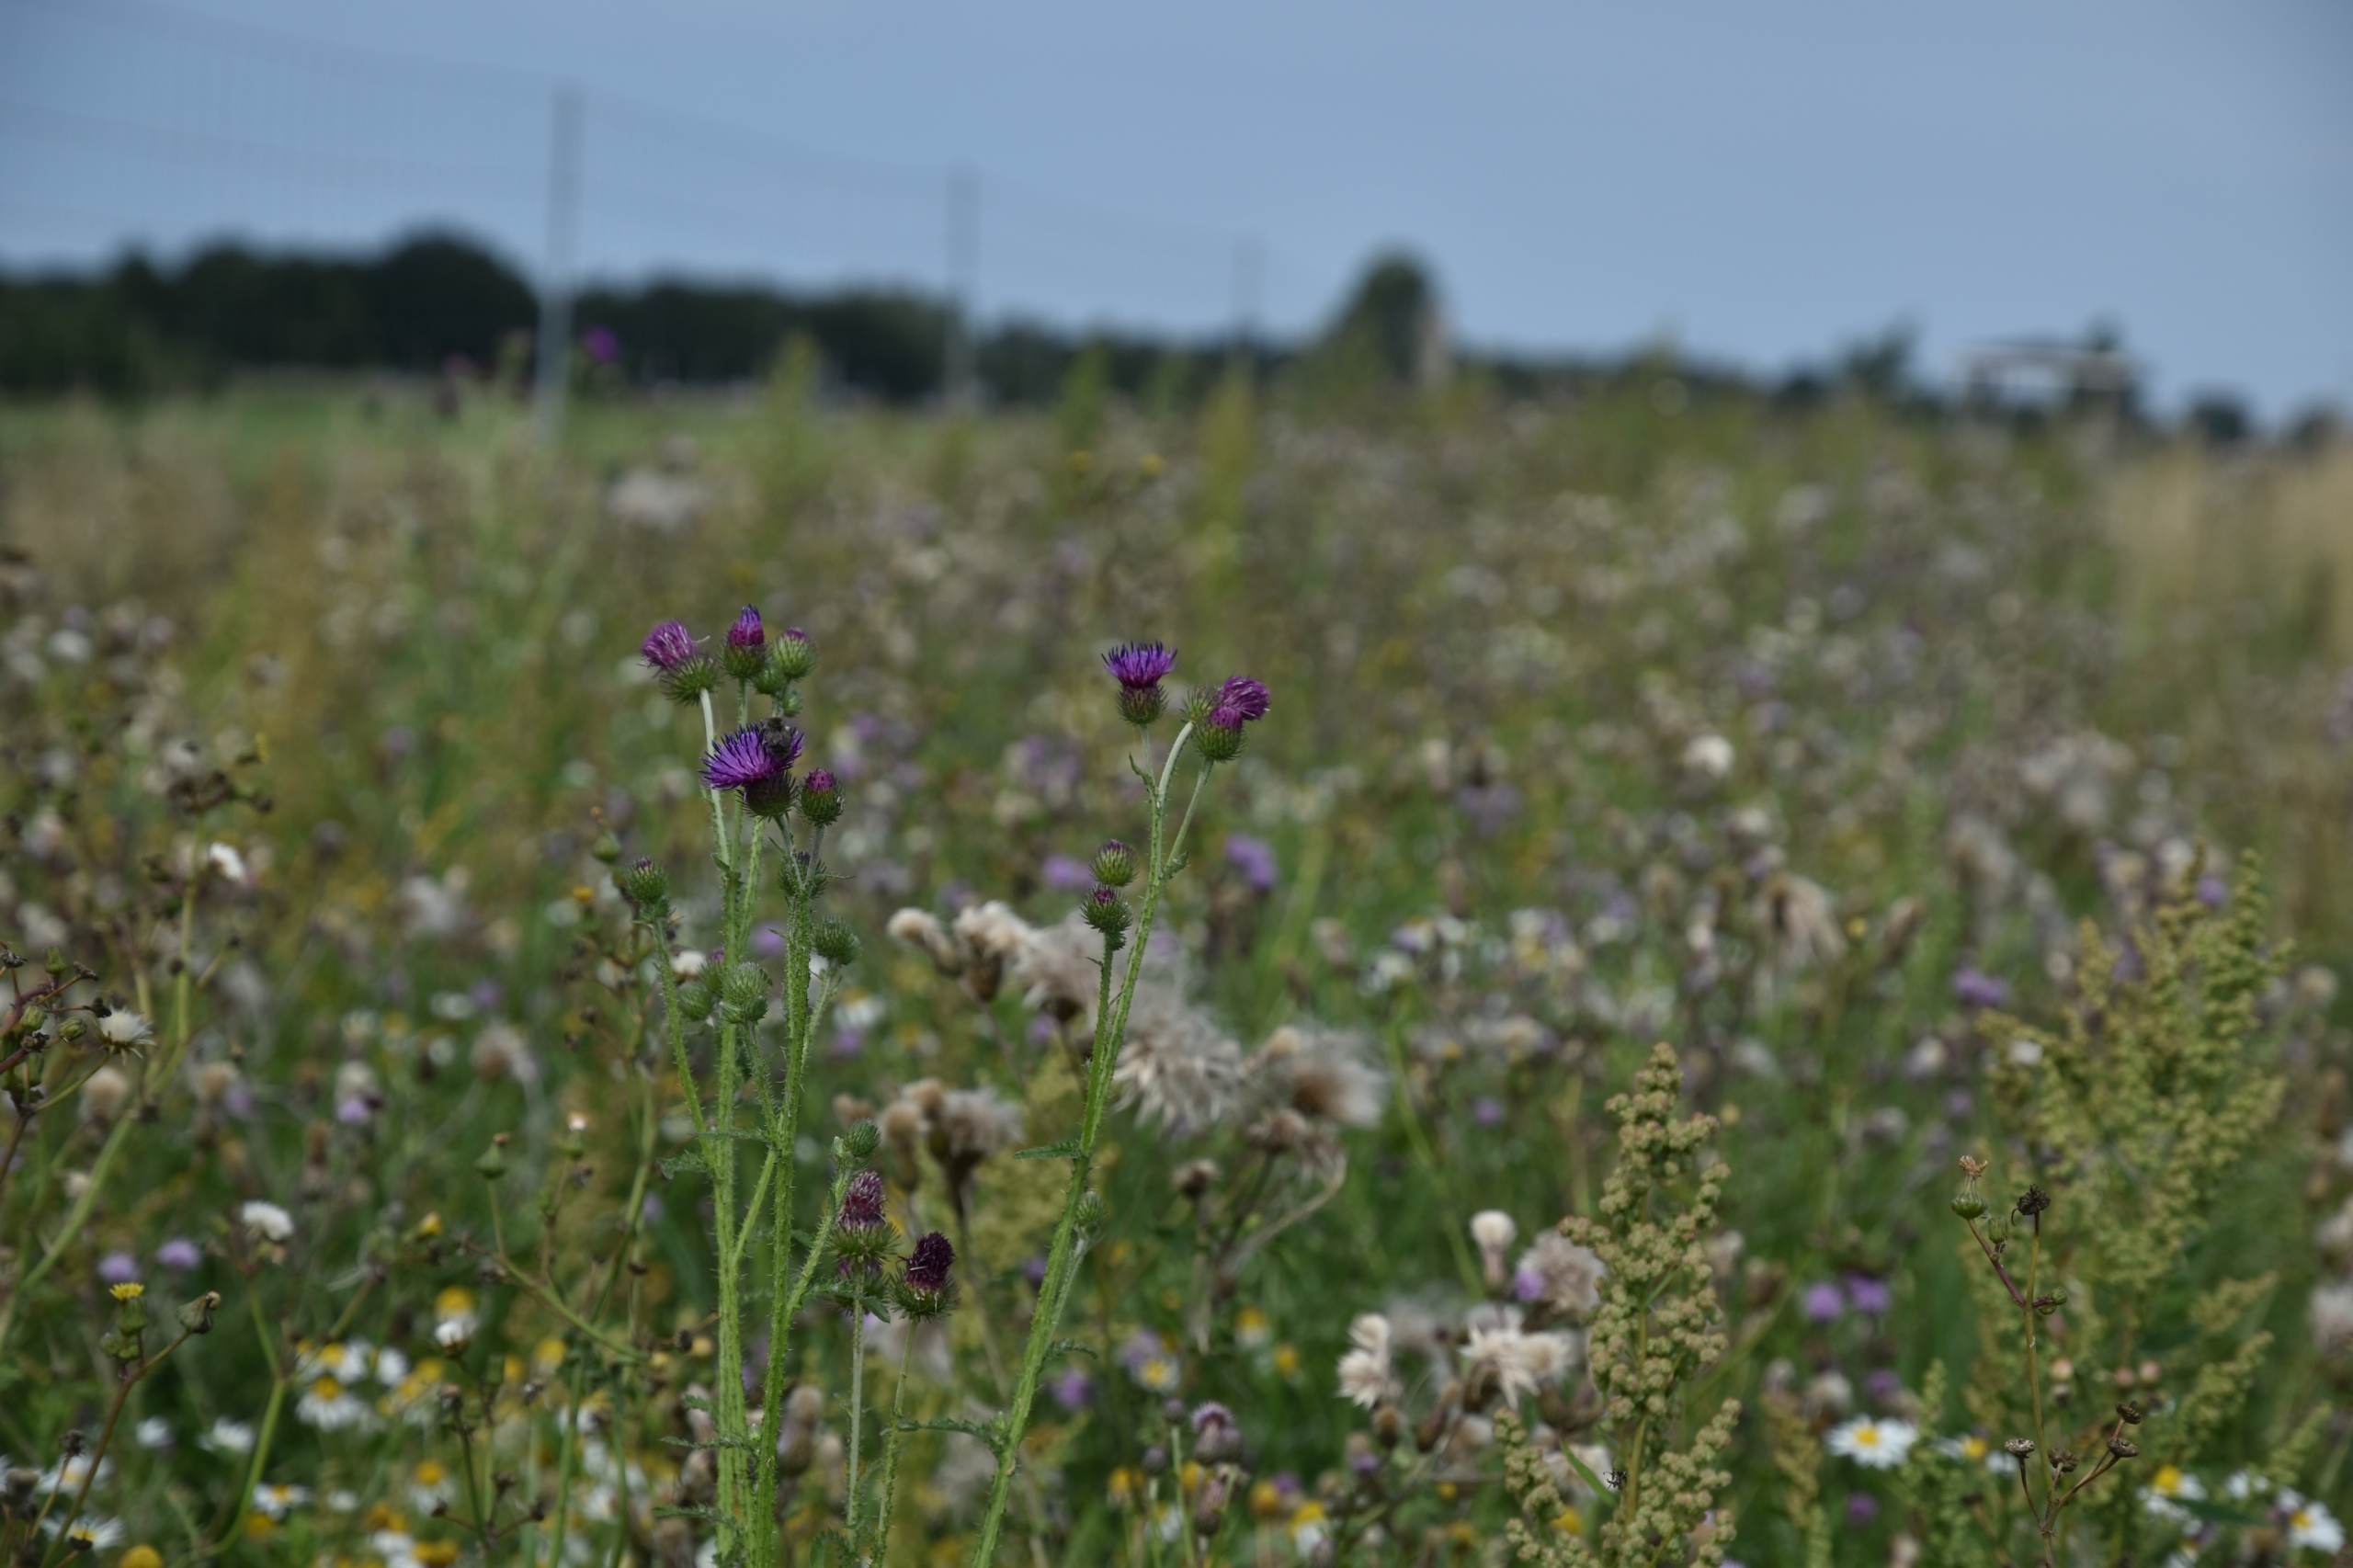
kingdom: Plantae
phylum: Tracheophyta
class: Magnoliopsida
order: Asterales
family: Asteraceae
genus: Carduus
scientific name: Carduus crispus
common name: Kruset tidsel
